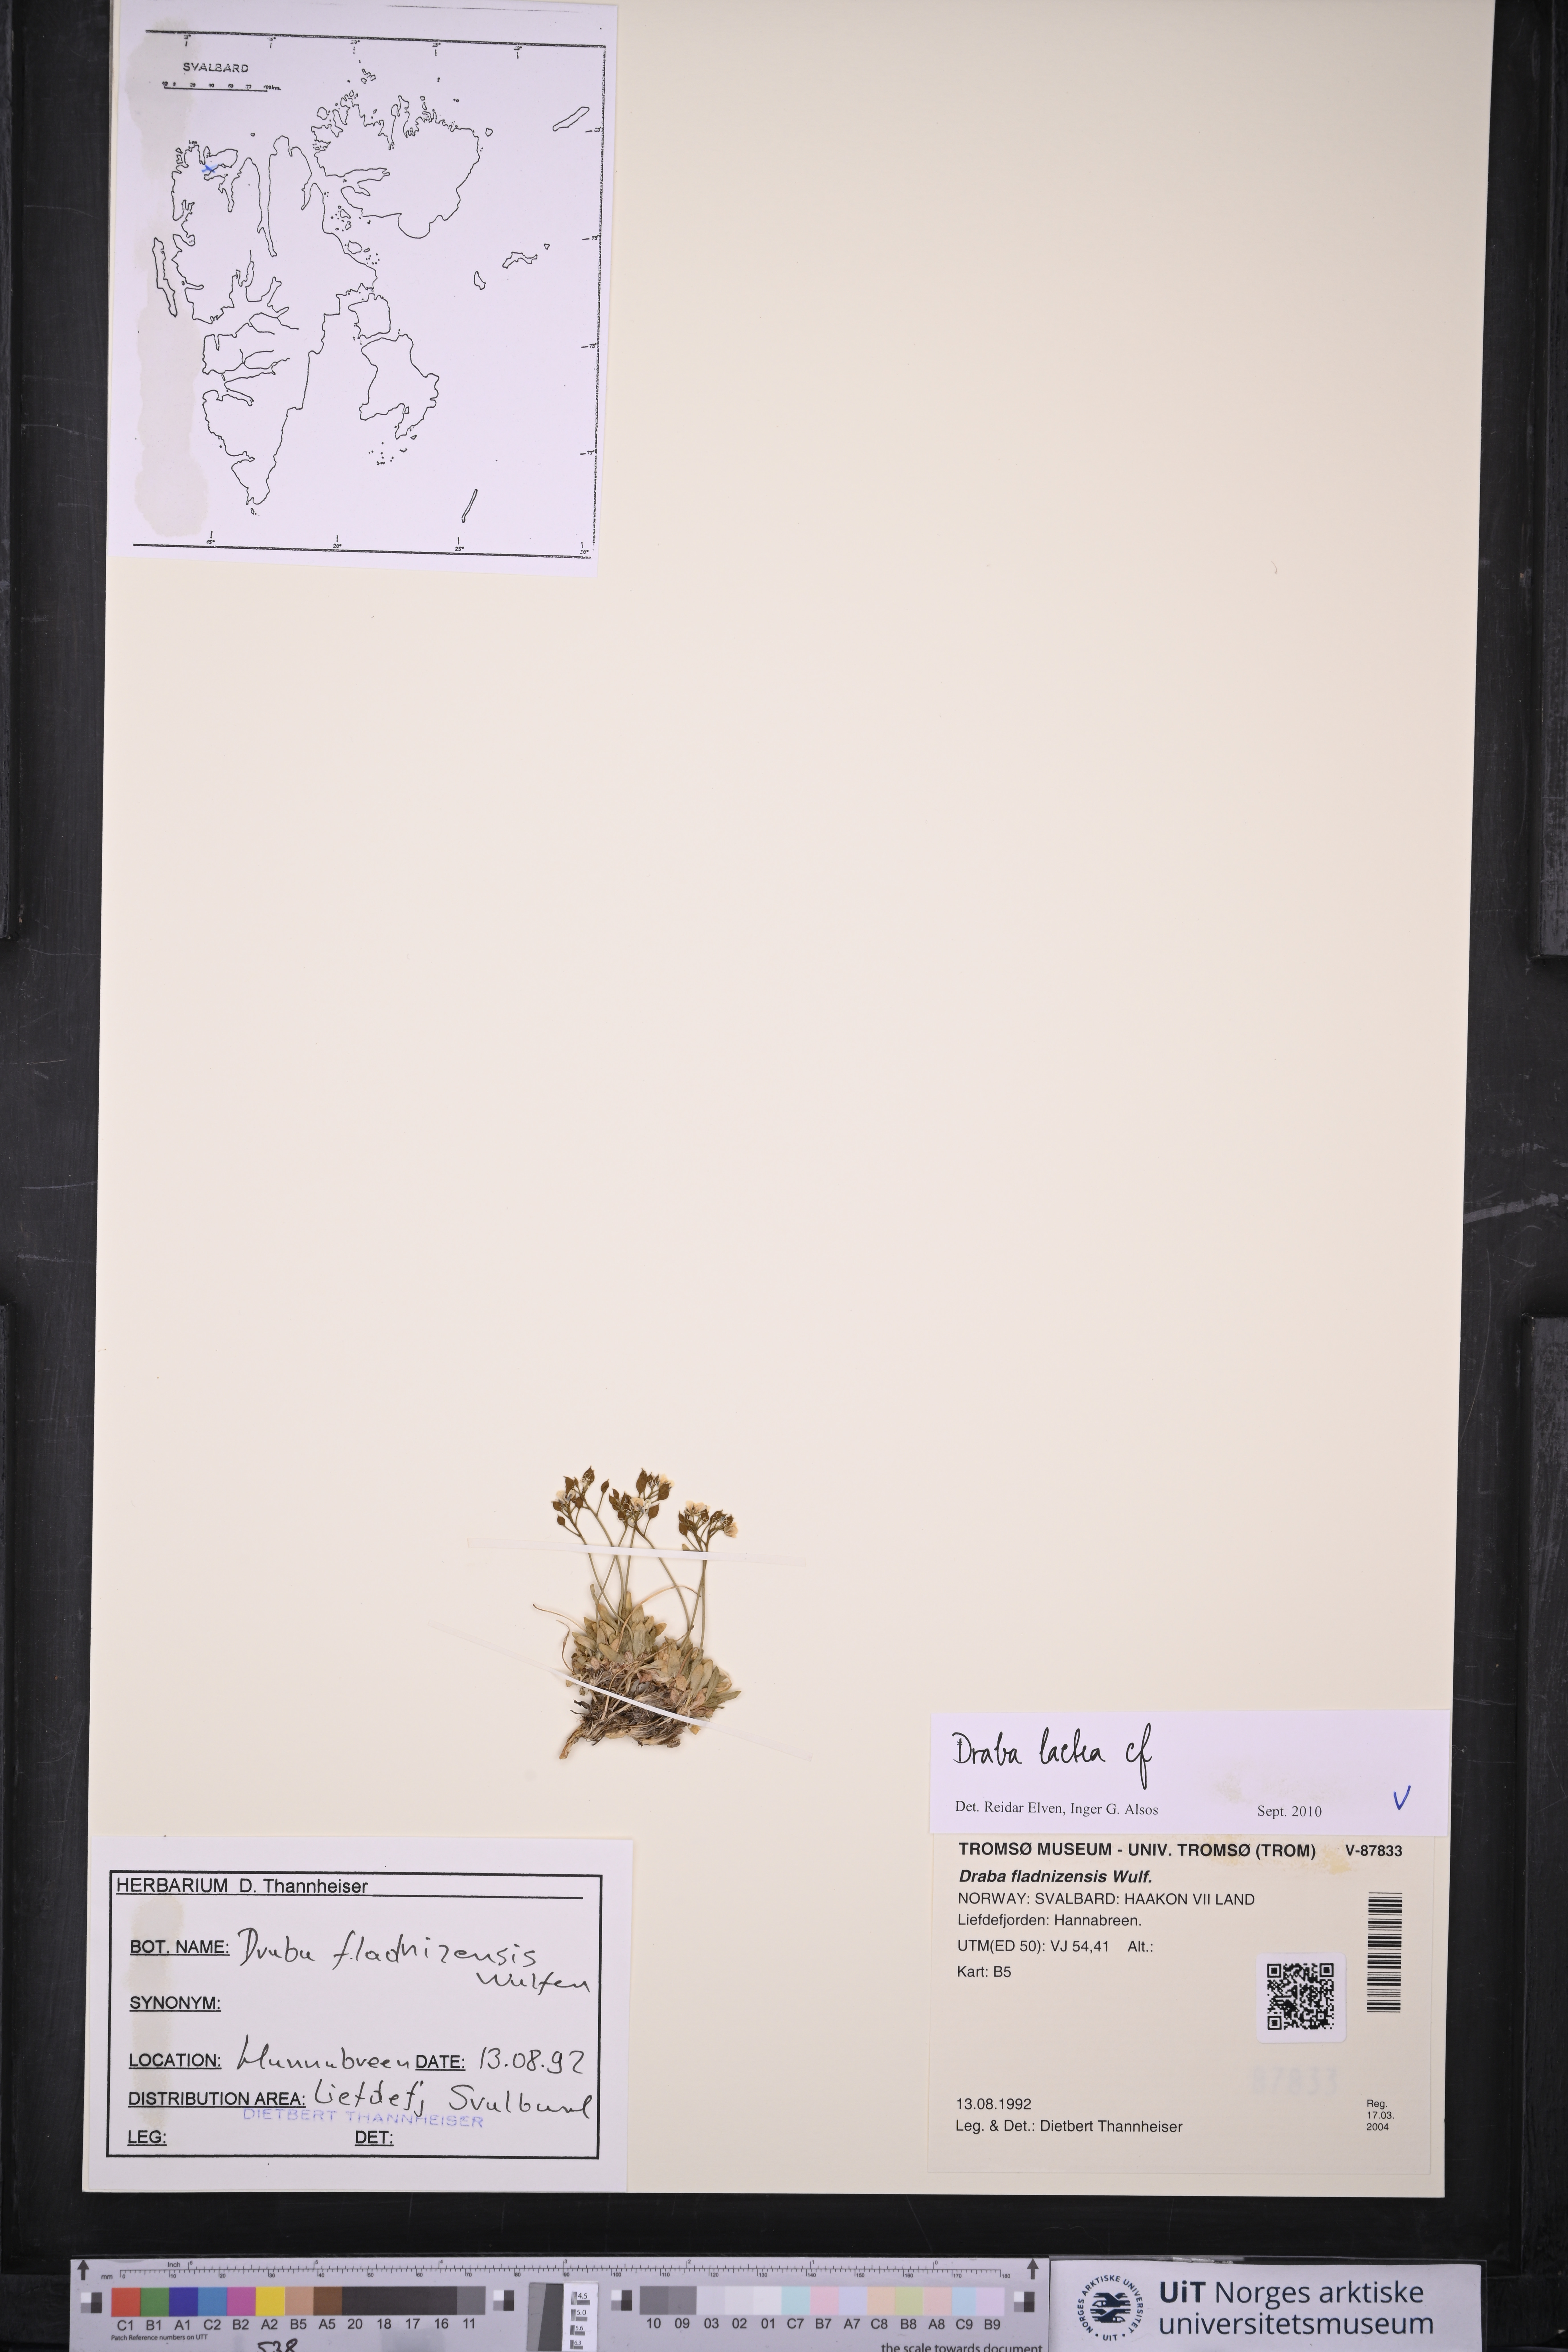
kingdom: Plantae
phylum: Tracheophyta
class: Magnoliopsida
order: Brassicales
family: Brassicaceae
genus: Draba
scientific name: Draba lactea
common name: Milky draba
